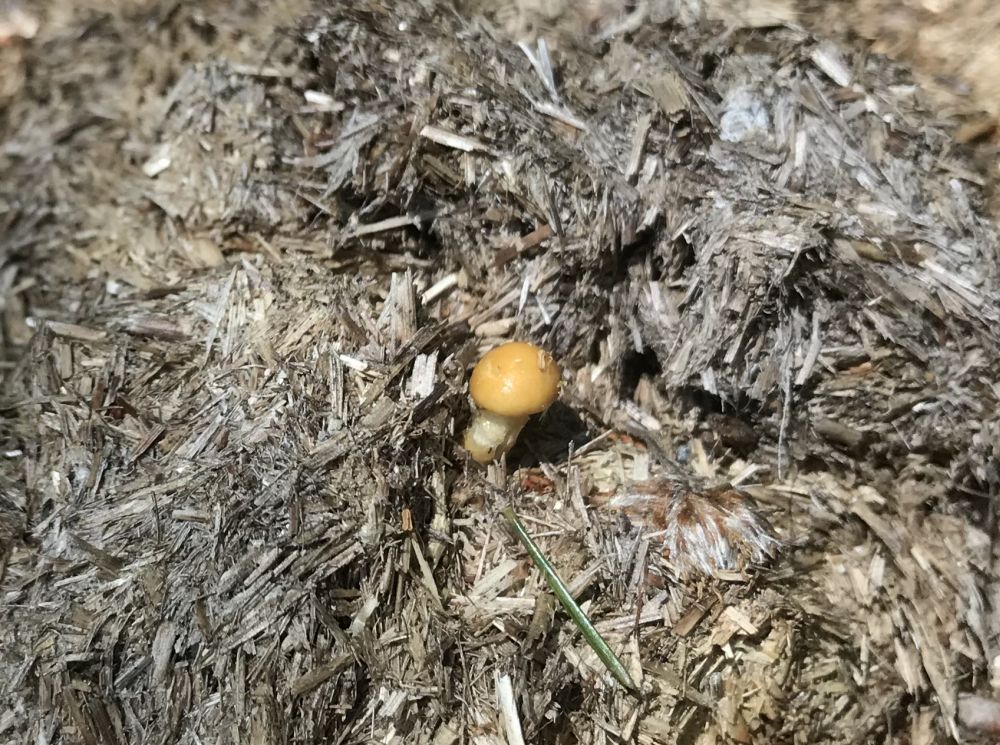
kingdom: Fungi
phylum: Basidiomycota
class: Agaricomycetes
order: Agaricales
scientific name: Agaricales
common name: champignonordenen
